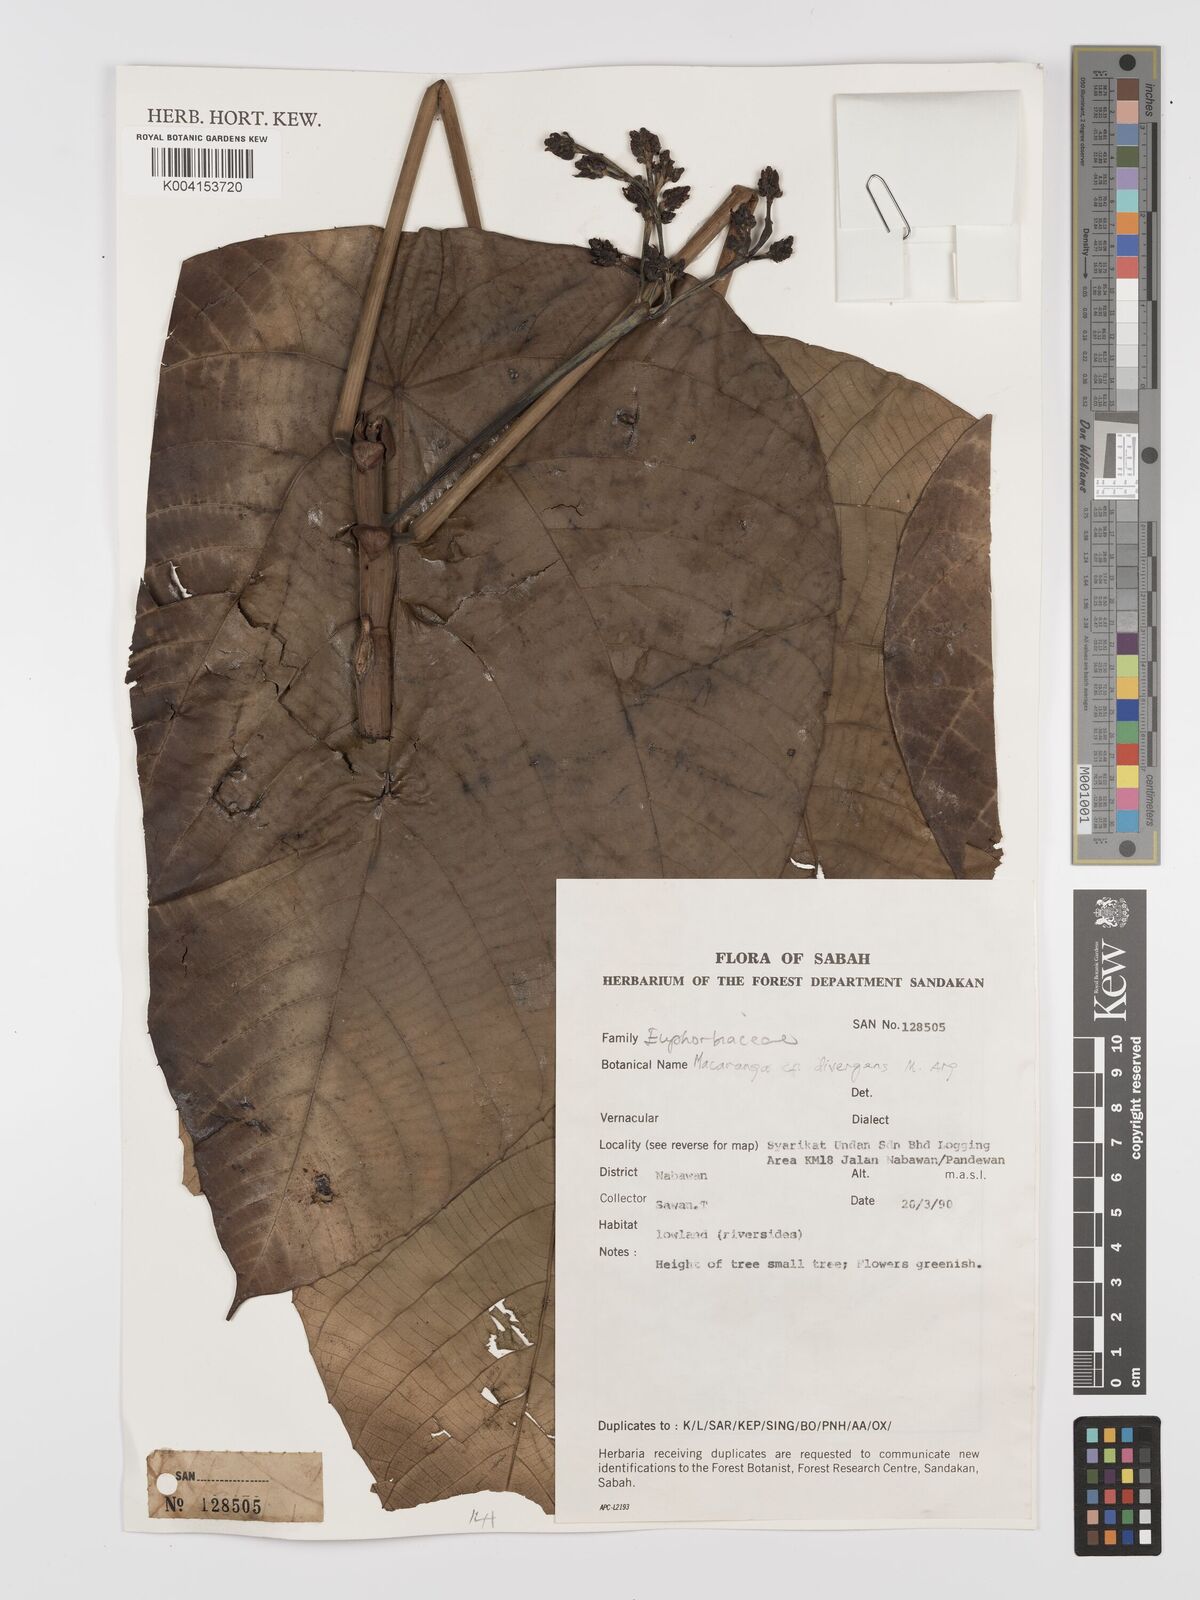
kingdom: Plantae
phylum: Tracheophyta
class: Magnoliopsida
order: Malpighiales
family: Euphorbiaceae
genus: Macaranga
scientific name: Macaranga depressa
